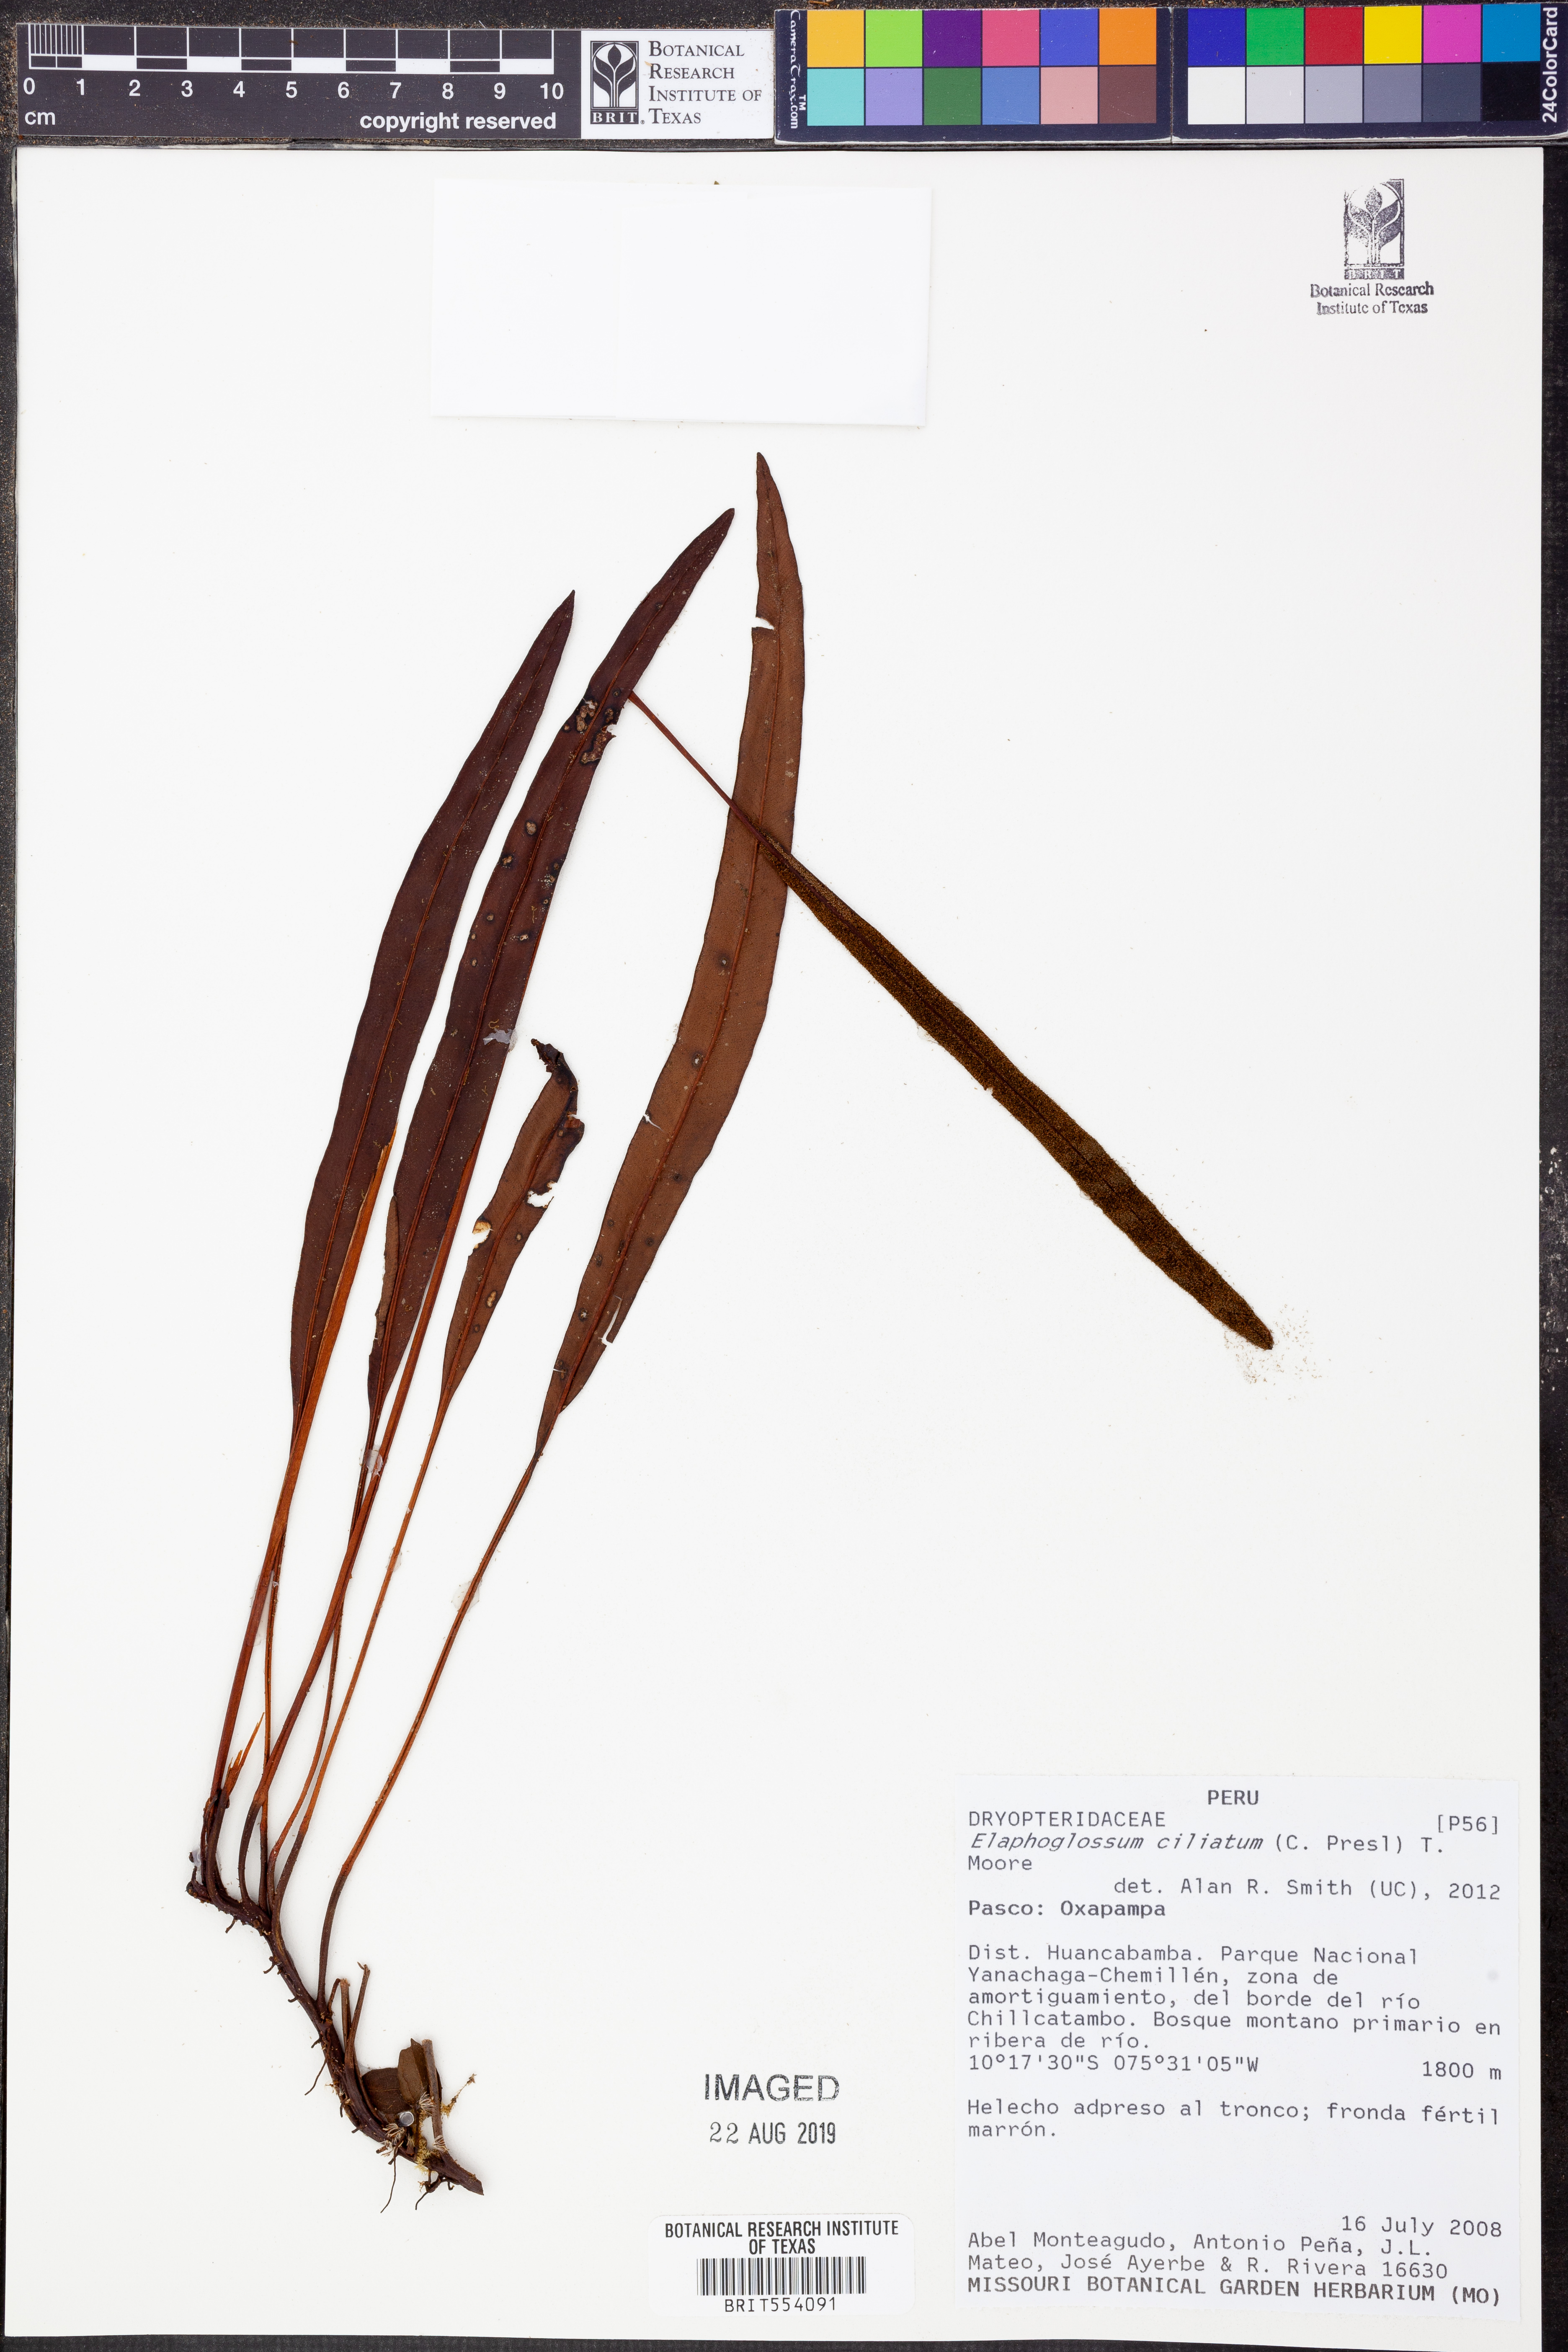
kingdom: Plantae
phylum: Tracheophyta
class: Polypodiopsida
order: Polypodiales
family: Dryopteridaceae
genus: Elaphoglossum
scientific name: Elaphoglossum ciliatum
